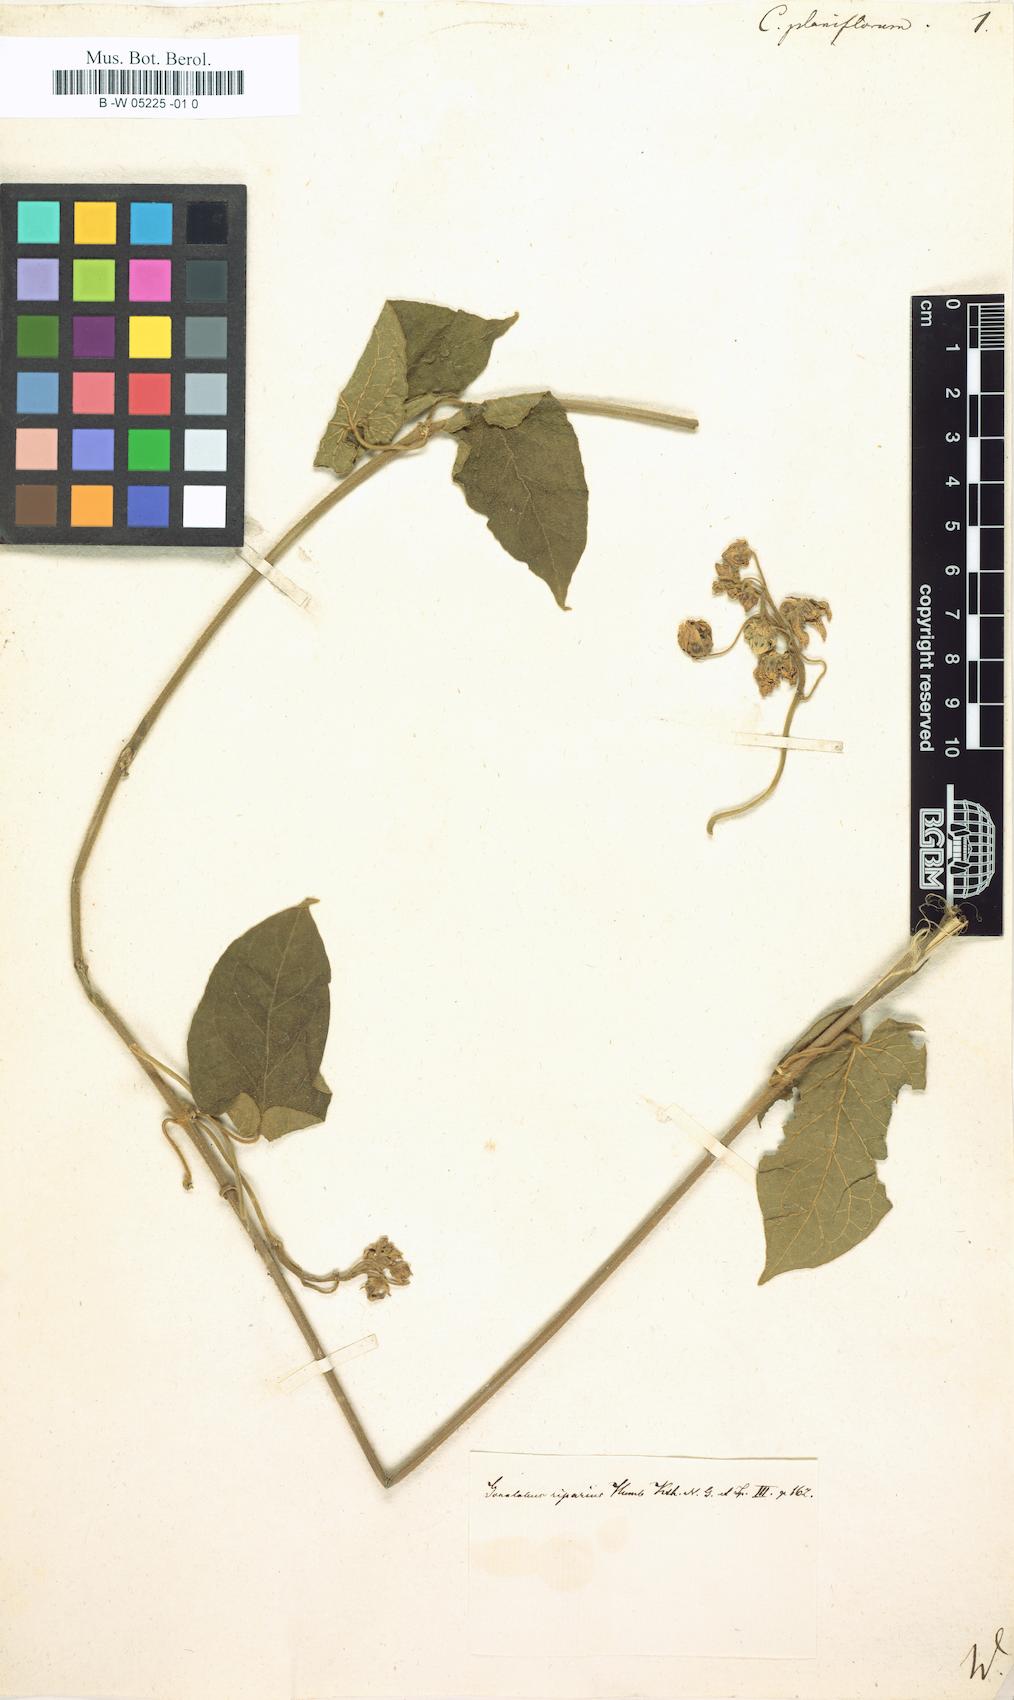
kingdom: Plantae
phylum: Tracheophyta
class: Magnoliopsida
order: Gentianales
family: Apocynaceae
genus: Atrostemma
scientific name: Atrostemma planiflorum
